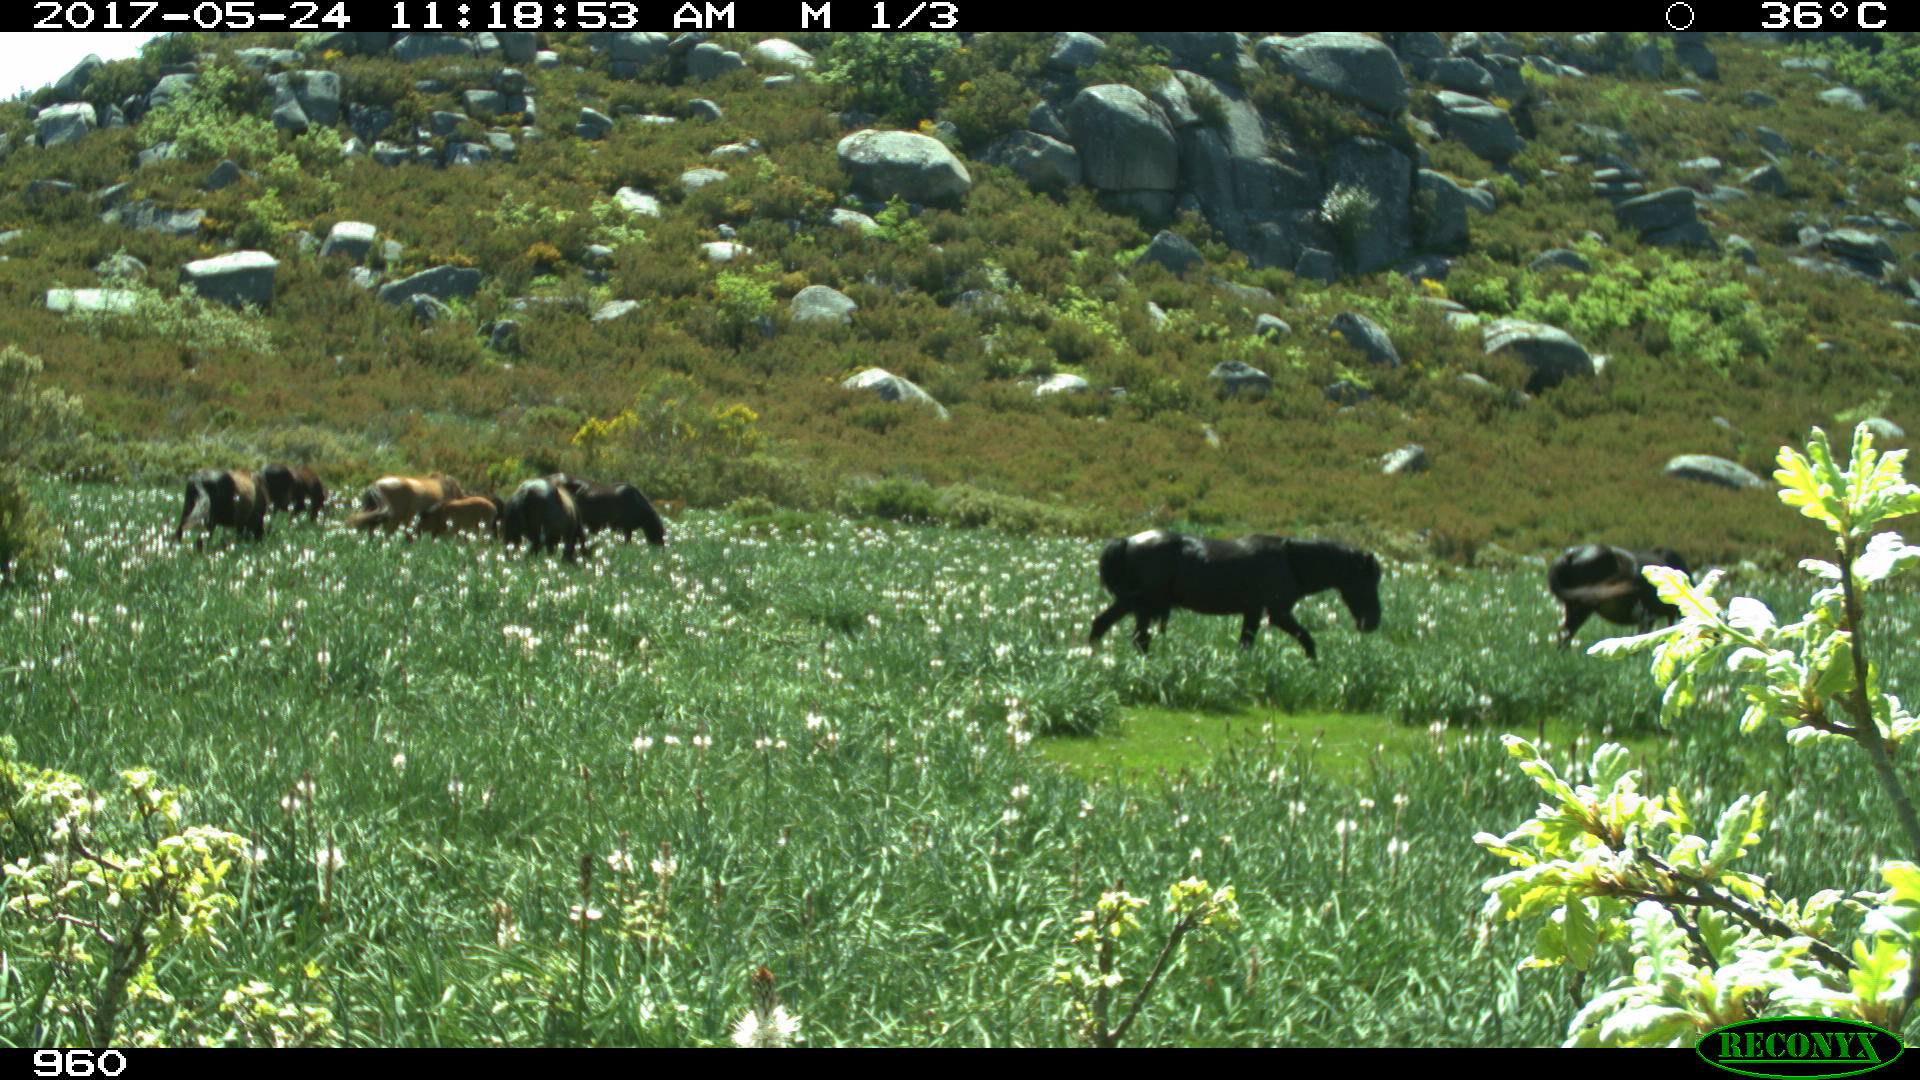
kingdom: Animalia
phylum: Chordata
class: Mammalia
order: Perissodactyla
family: Equidae
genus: Equus
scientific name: Equus caballus
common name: Horse
